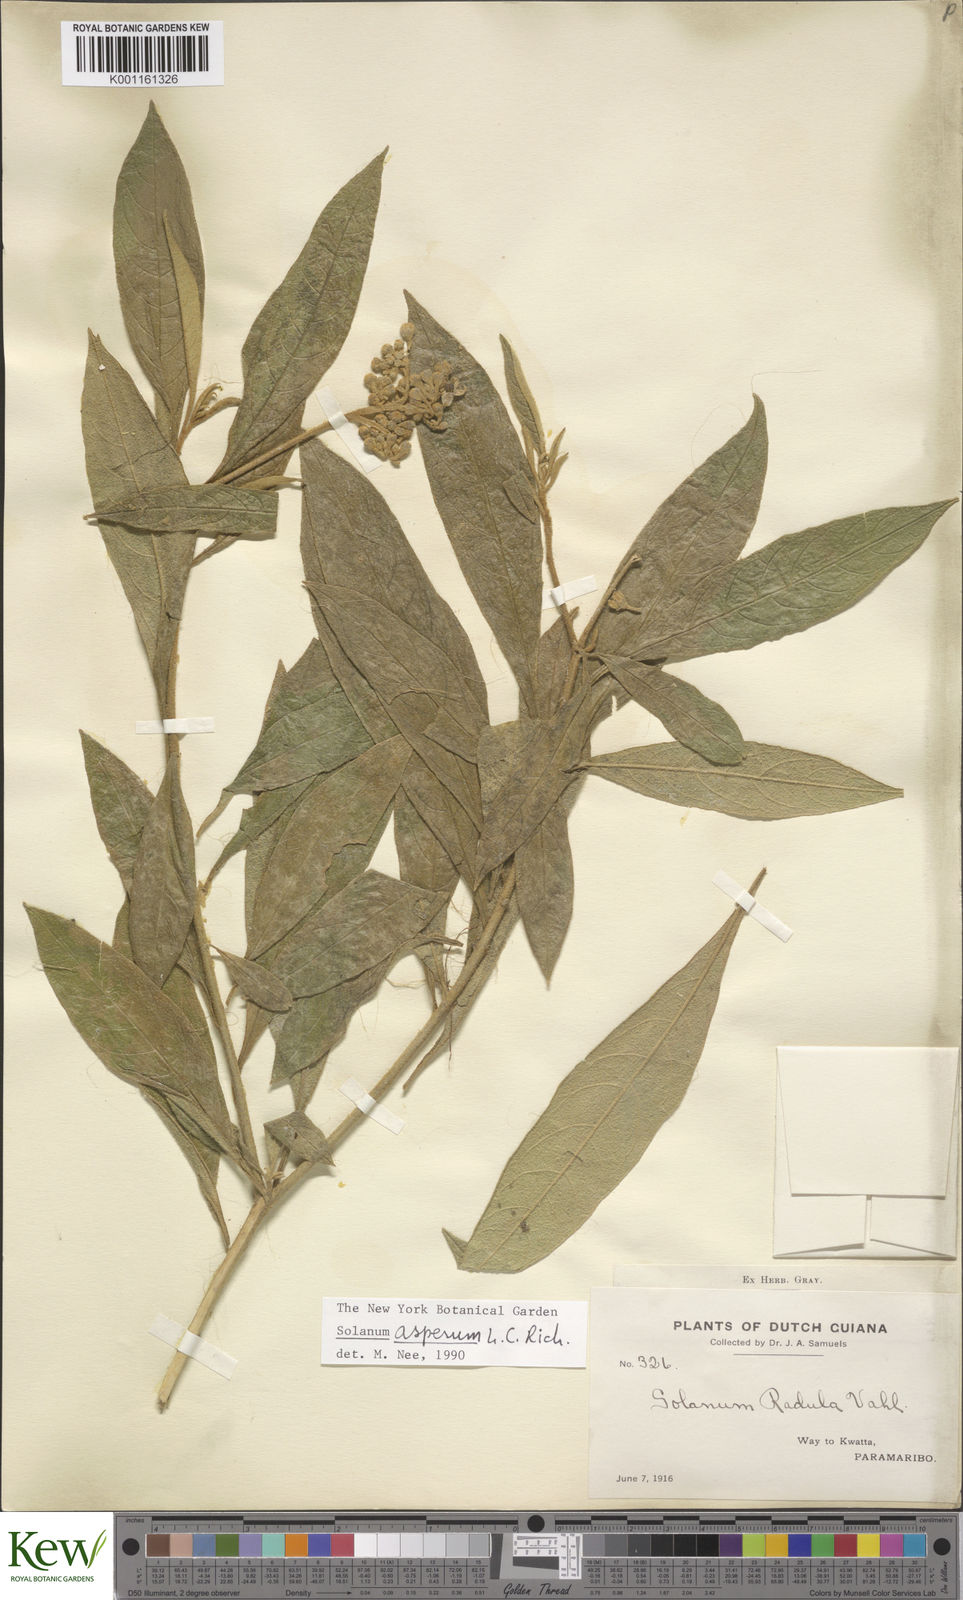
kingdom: Plantae
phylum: Tracheophyta
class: Magnoliopsida
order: Solanales
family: Solanaceae
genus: Solanum
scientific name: Solanum asperum
